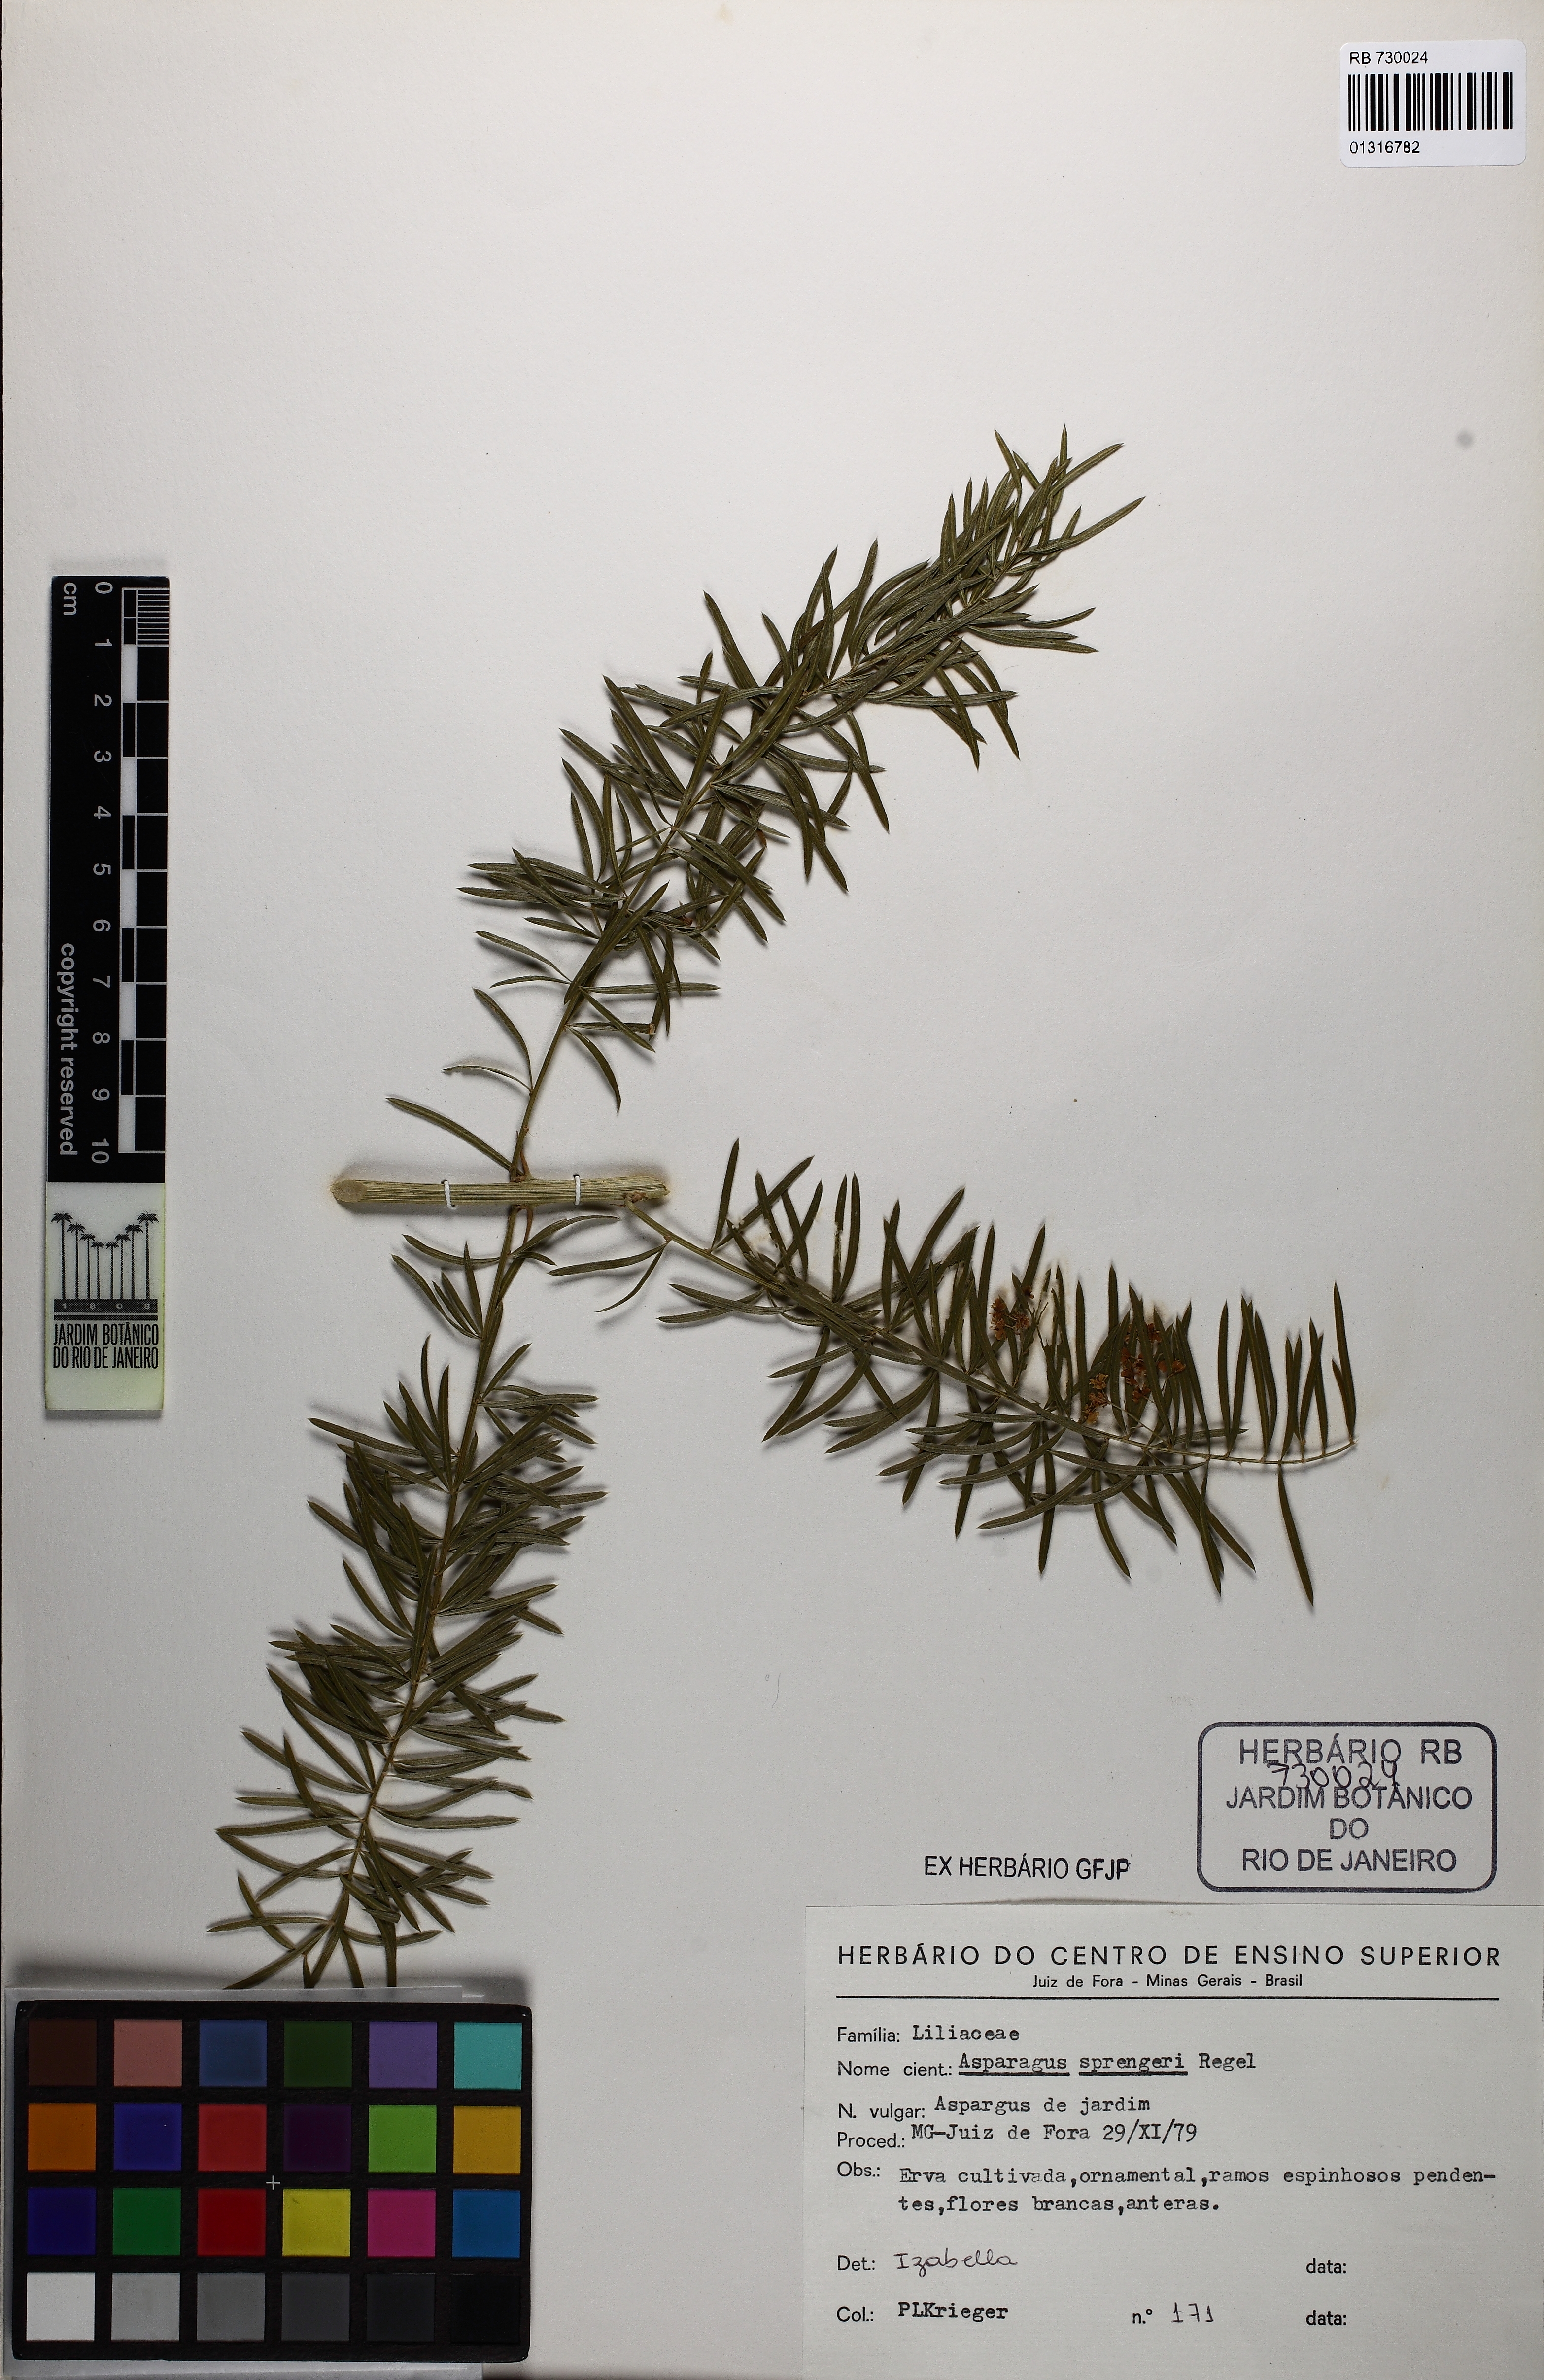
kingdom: Plantae
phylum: Tracheophyta
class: Liliopsida
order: Asparagales
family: Asparagaceae
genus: Asparagus
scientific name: Asparagus densiflorus
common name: Asparagus fern
